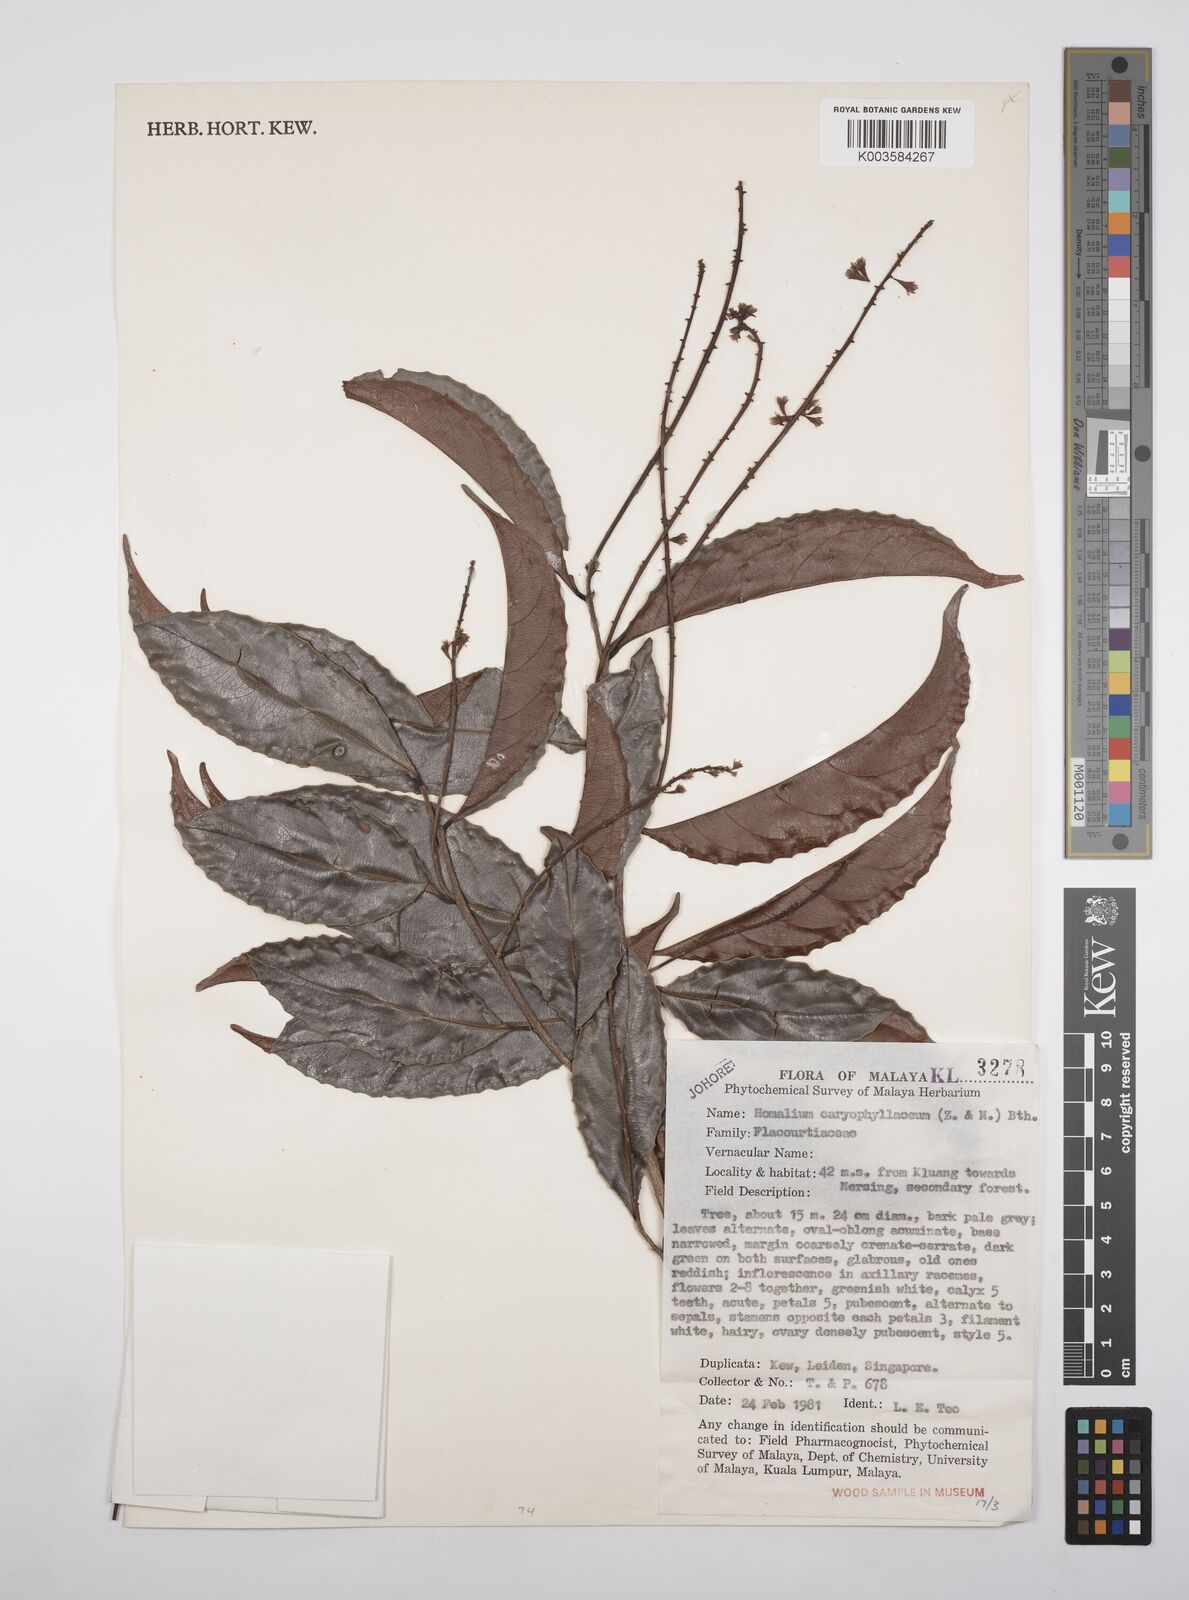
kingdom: Plantae
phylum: Tracheophyta
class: Magnoliopsida
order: Malpighiales
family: Salicaceae
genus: Homalium
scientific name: Homalium caryophyllaceum
